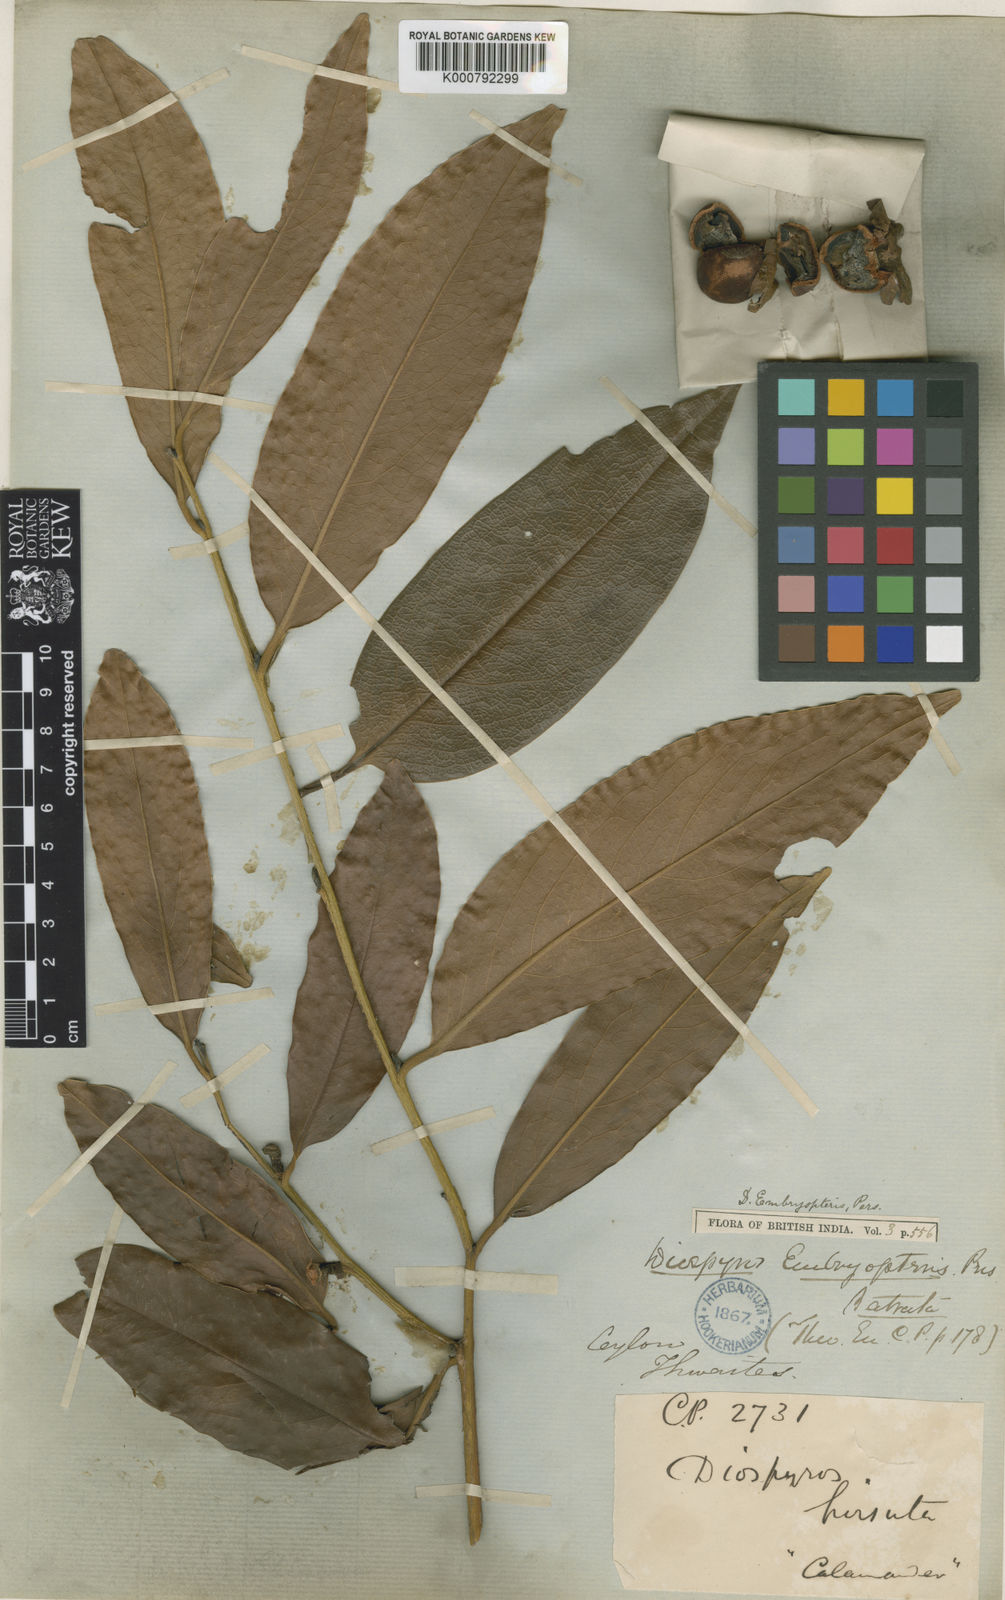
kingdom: Plantae
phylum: Tracheophyta
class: Magnoliopsida
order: Ericales
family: Ebenaceae
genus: Diospyros
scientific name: Diospyros malabarica
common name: Mountain ebony
